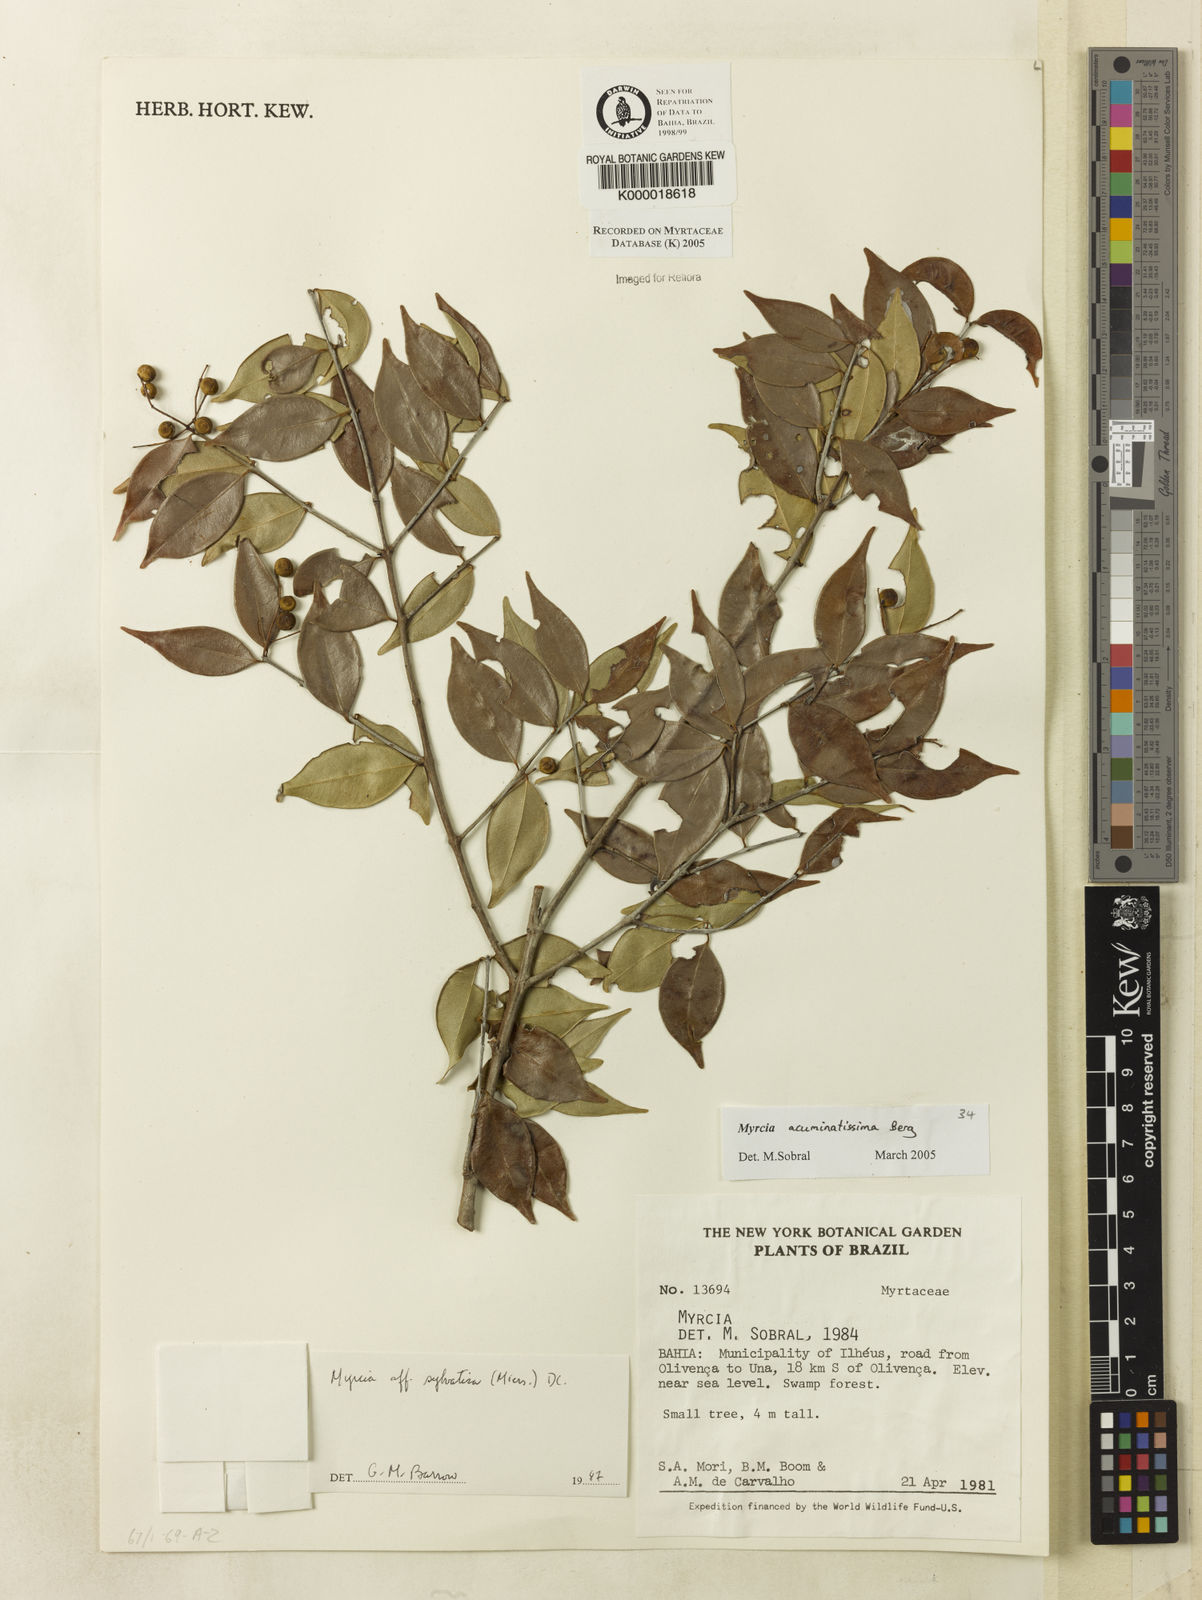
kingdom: Plantae
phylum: Tracheophyta
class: Magnoliopsida
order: Myrtales
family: Myrtaceae
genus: Myrcia
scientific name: Myrcia sylvatica
